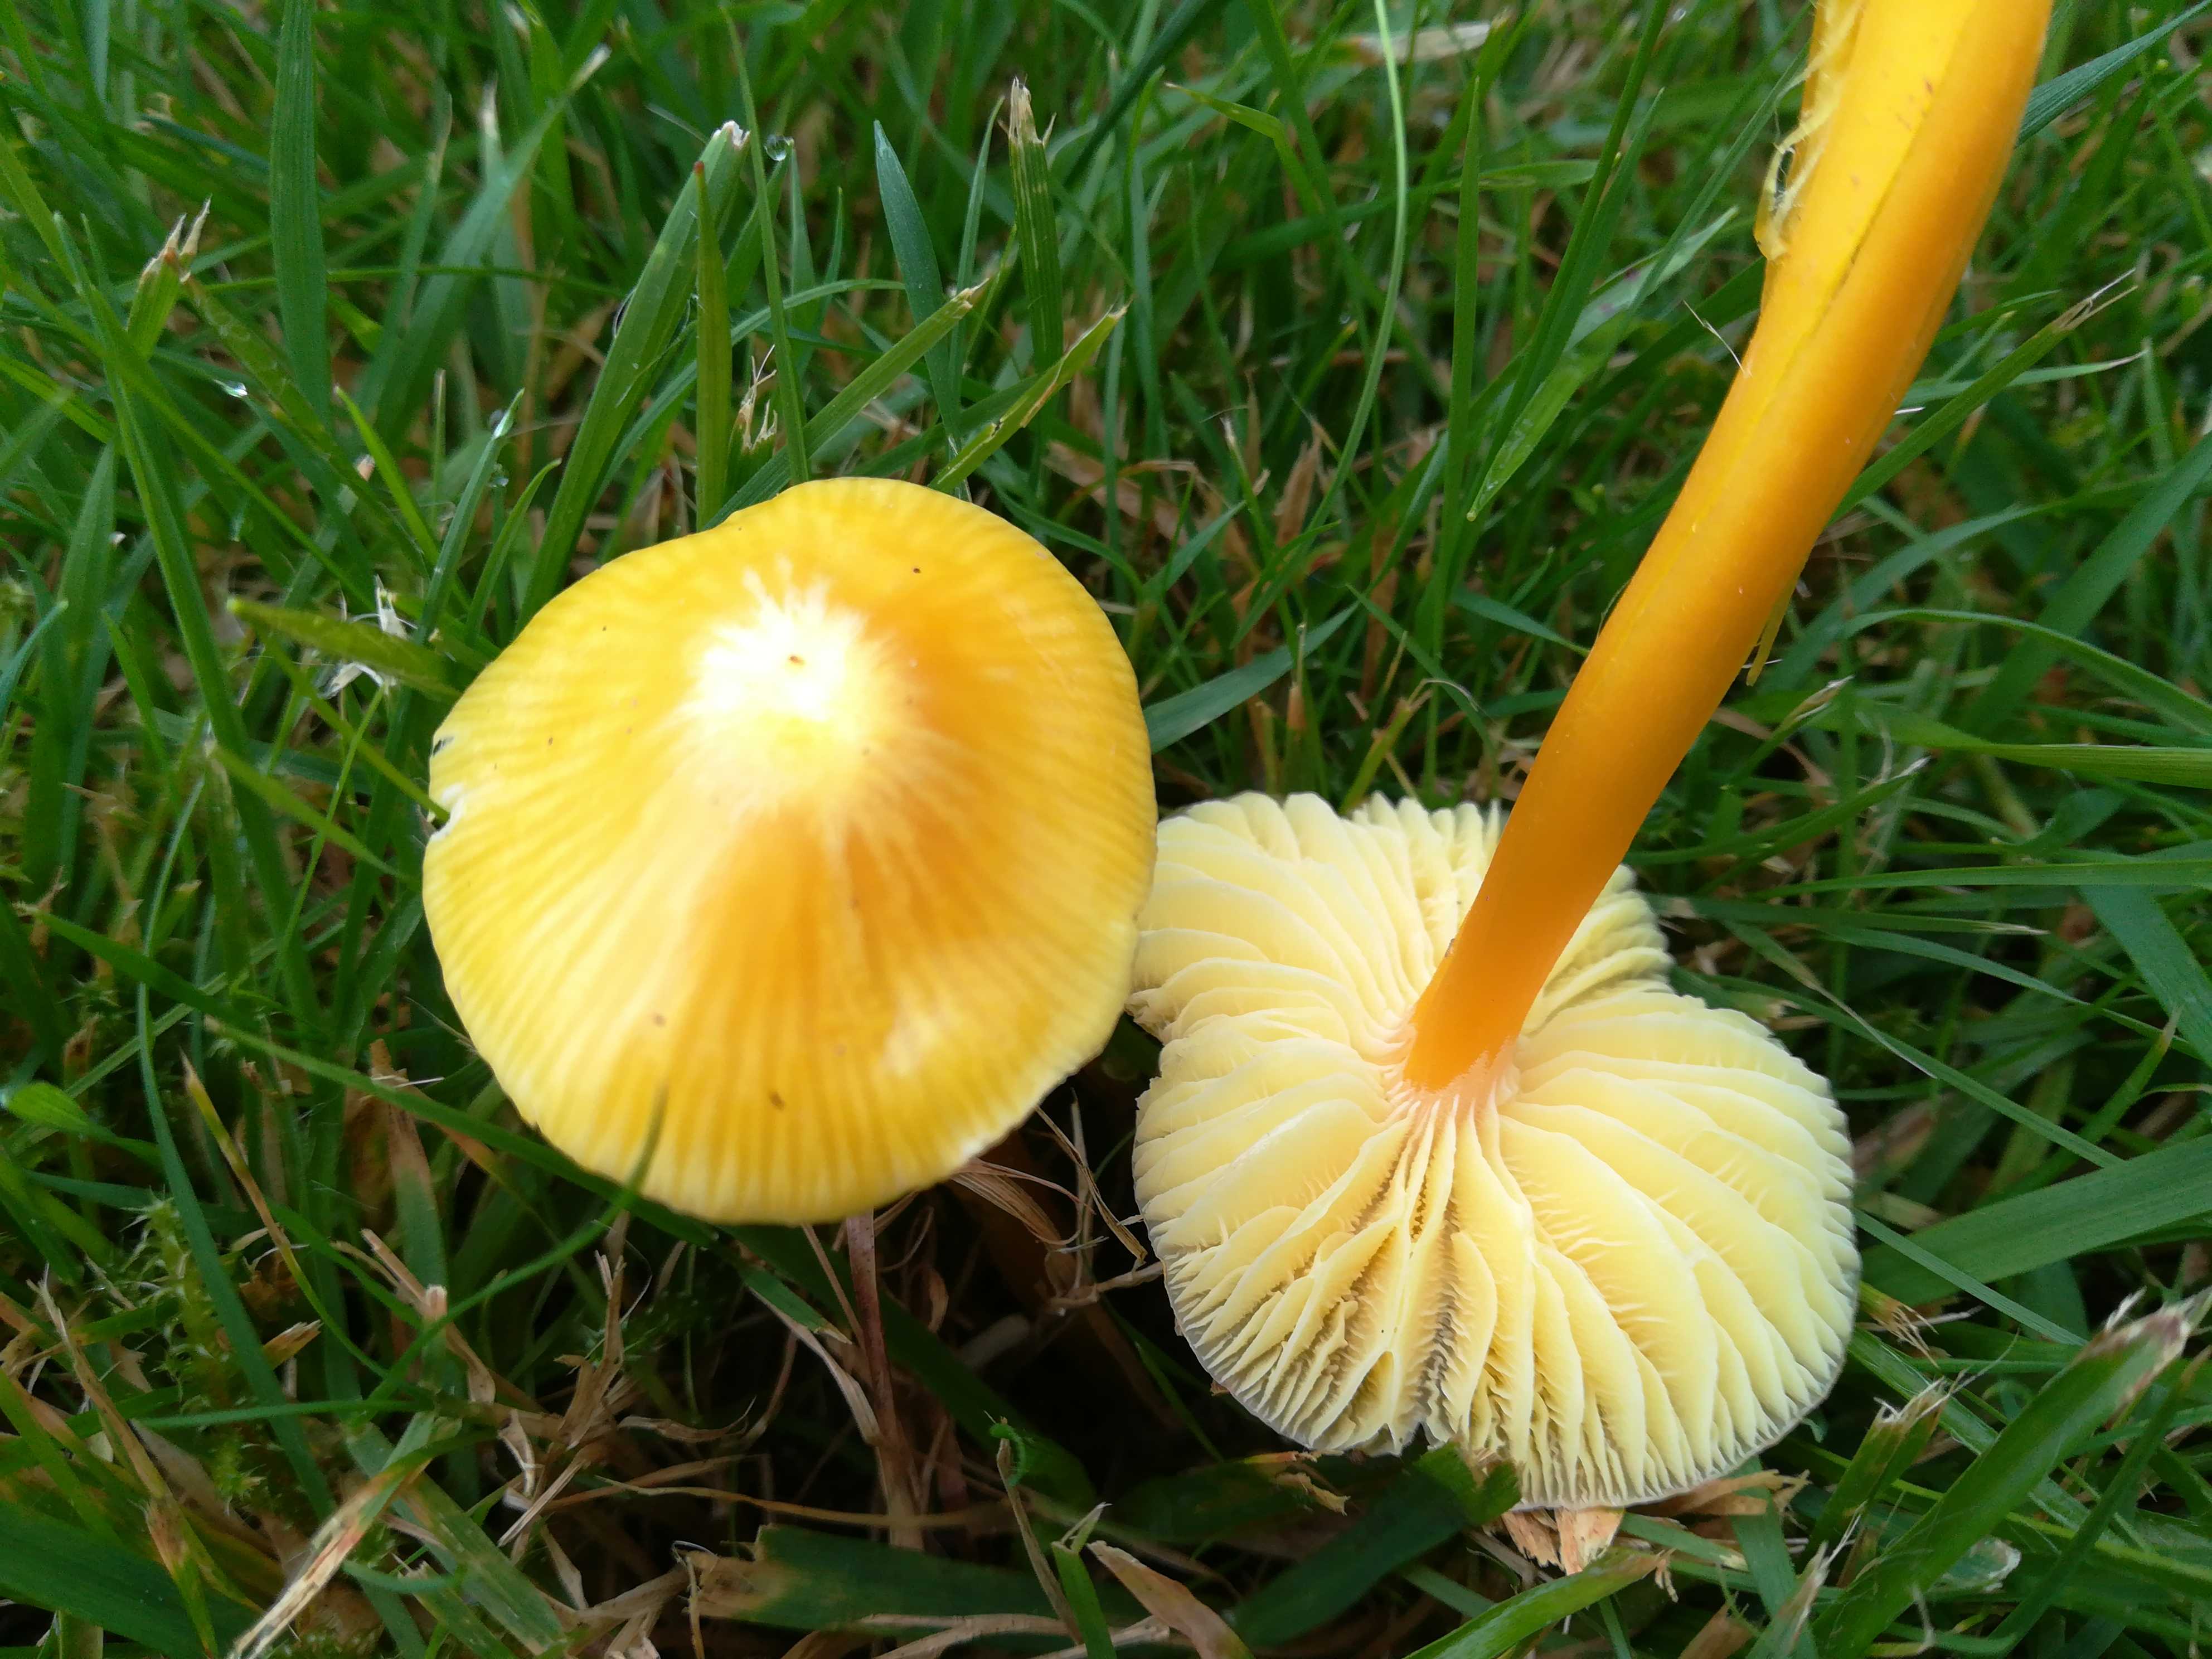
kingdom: Fungi
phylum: Basidiomycota
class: Agaricomycetes
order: Agaricales
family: Hygrophoraceae
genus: Hygrocybe
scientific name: Hygrocybe ceracea
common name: voksgul vokshat
